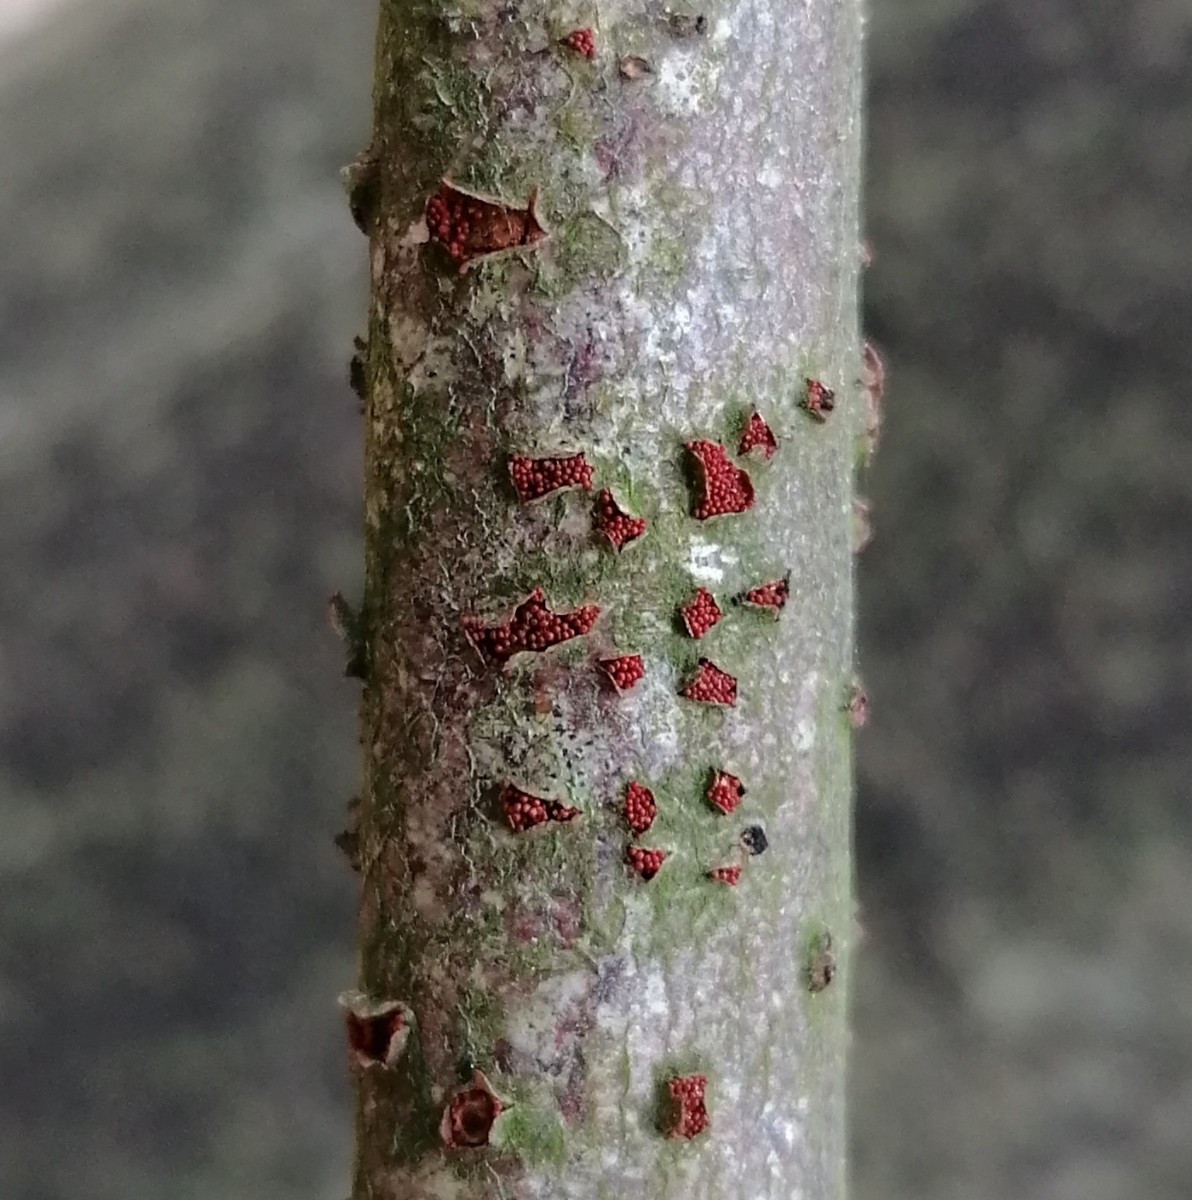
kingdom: Fungi
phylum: Ascomycota
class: Sordariomycetes
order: Hypocreales
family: Nectriaceae
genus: Neonectria
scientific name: Neonectria coccinea
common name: bøgebark-cinnobersvamp
